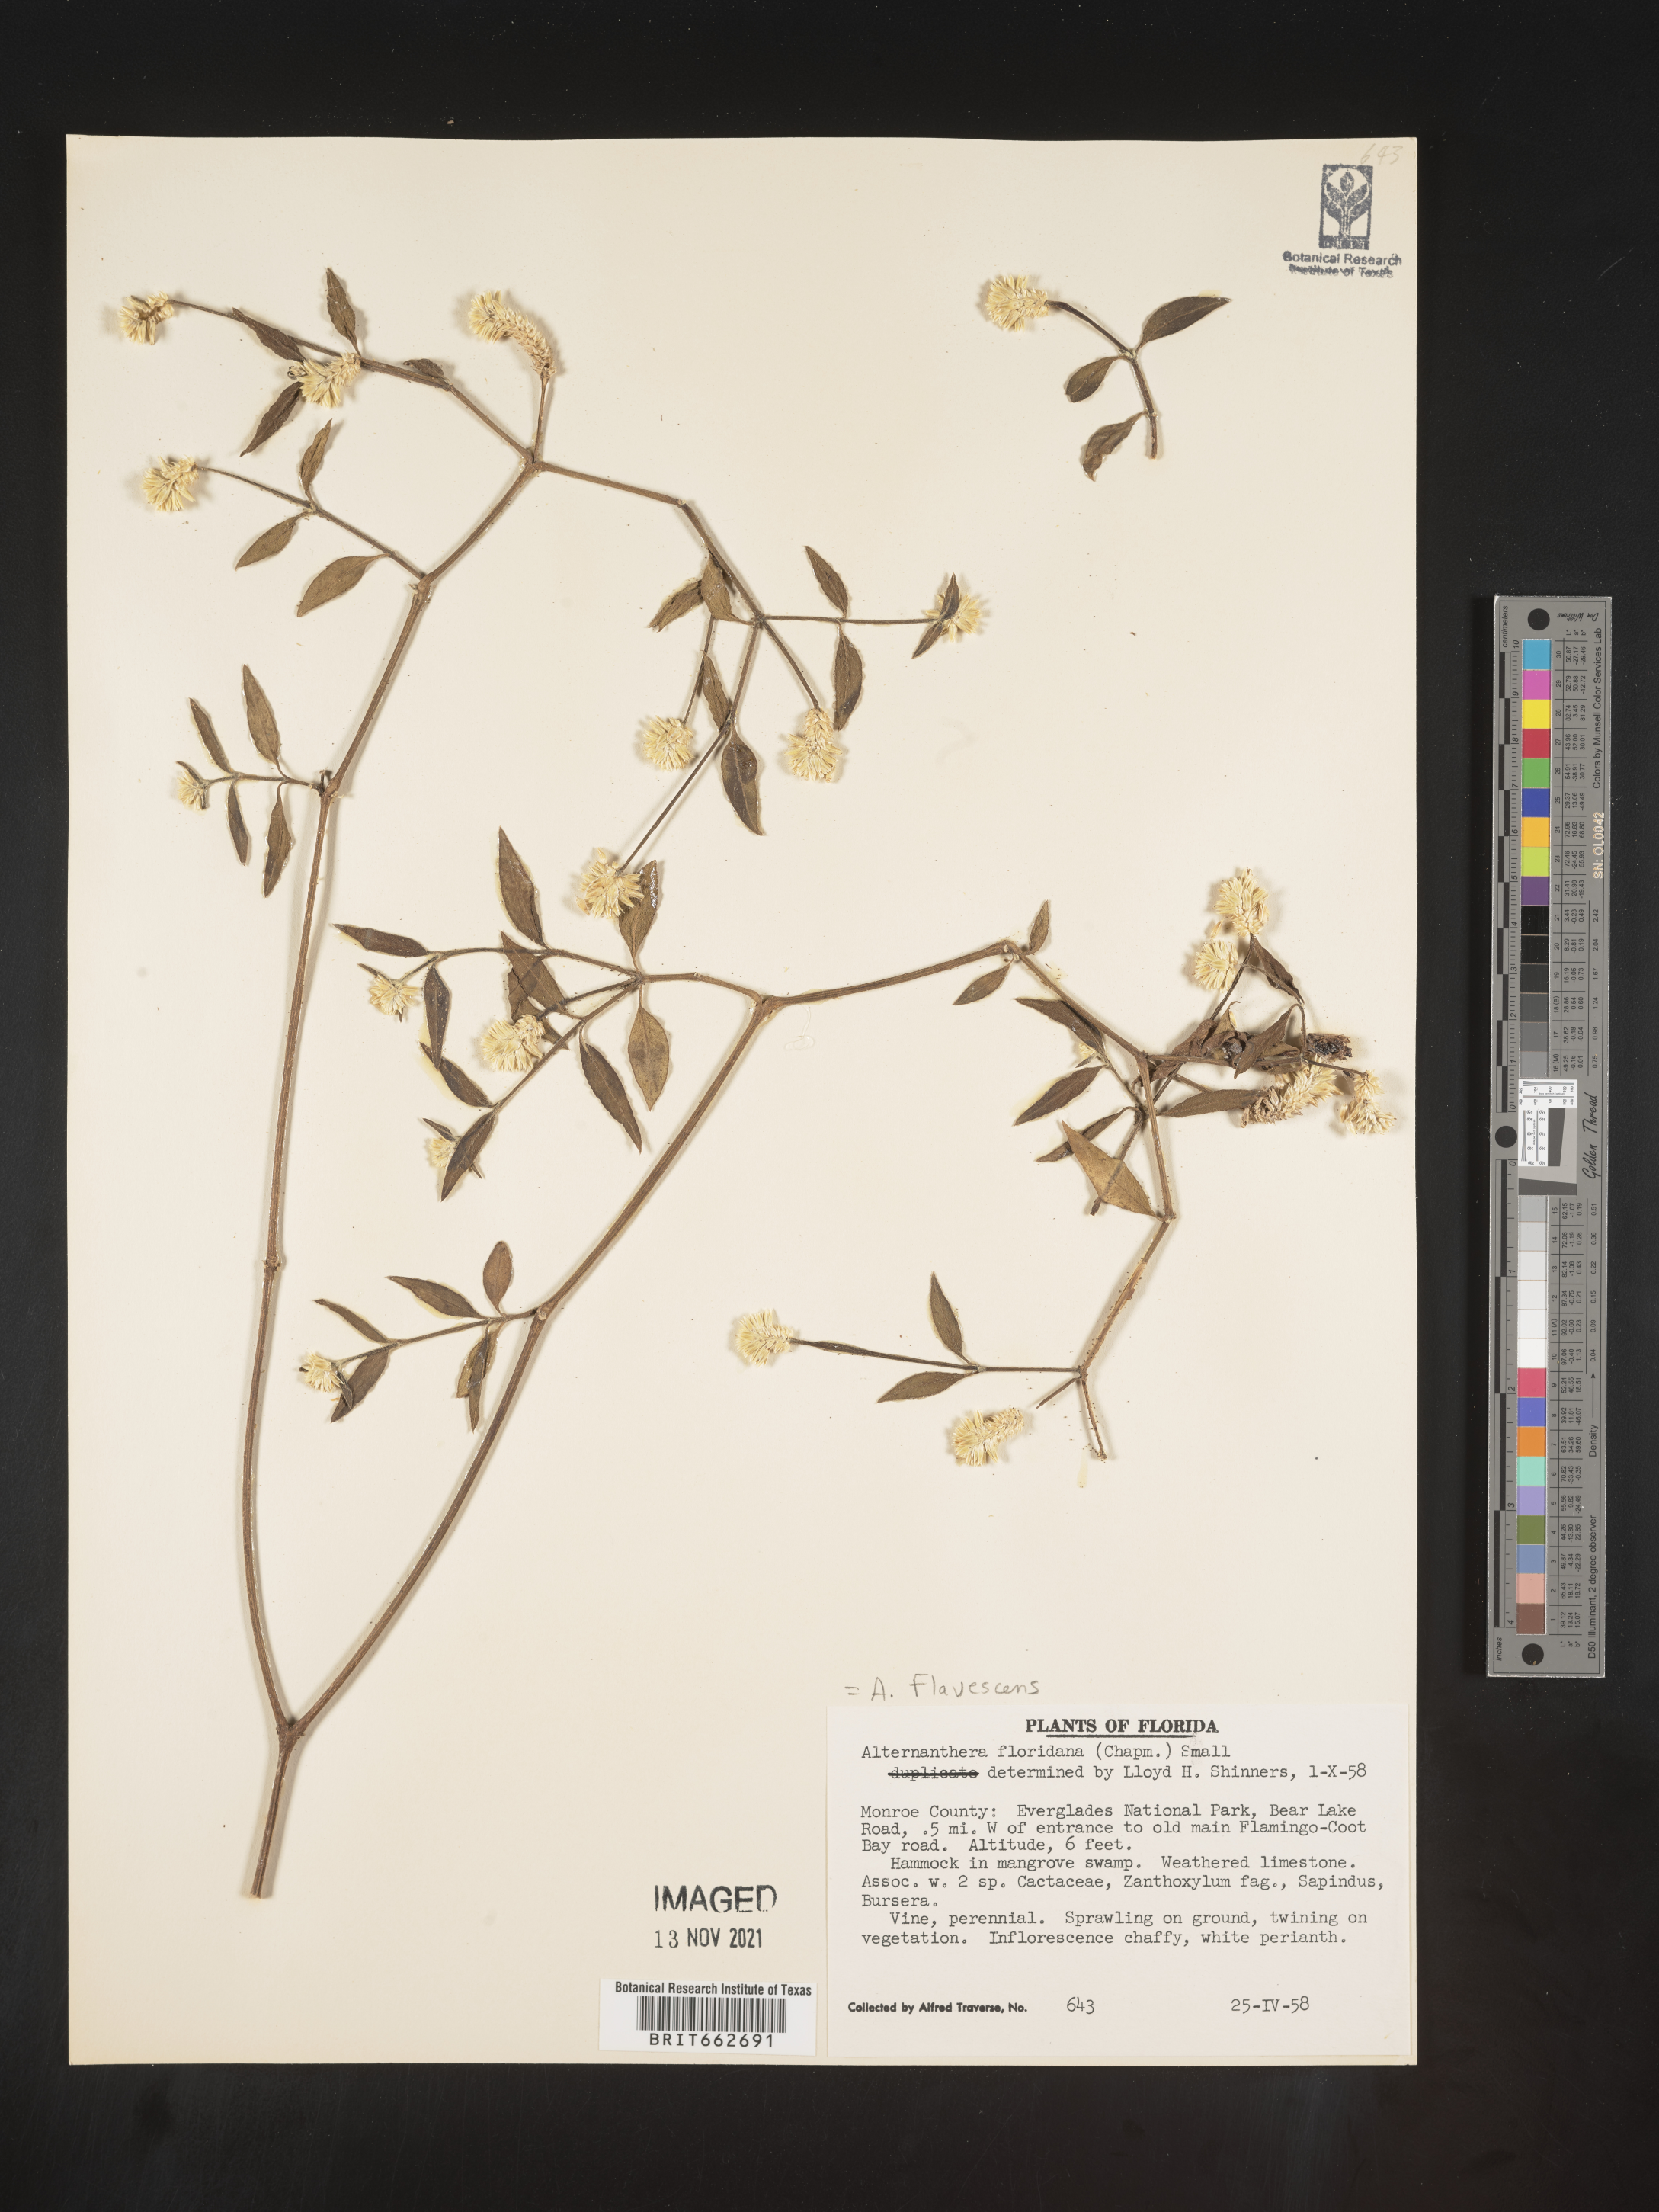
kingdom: Plantae
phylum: Tracheophyta
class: Magnoliopsida
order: Caryophyllales
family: Amaranthaceae
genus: Alternanthera
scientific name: Alternanthera flavescens
